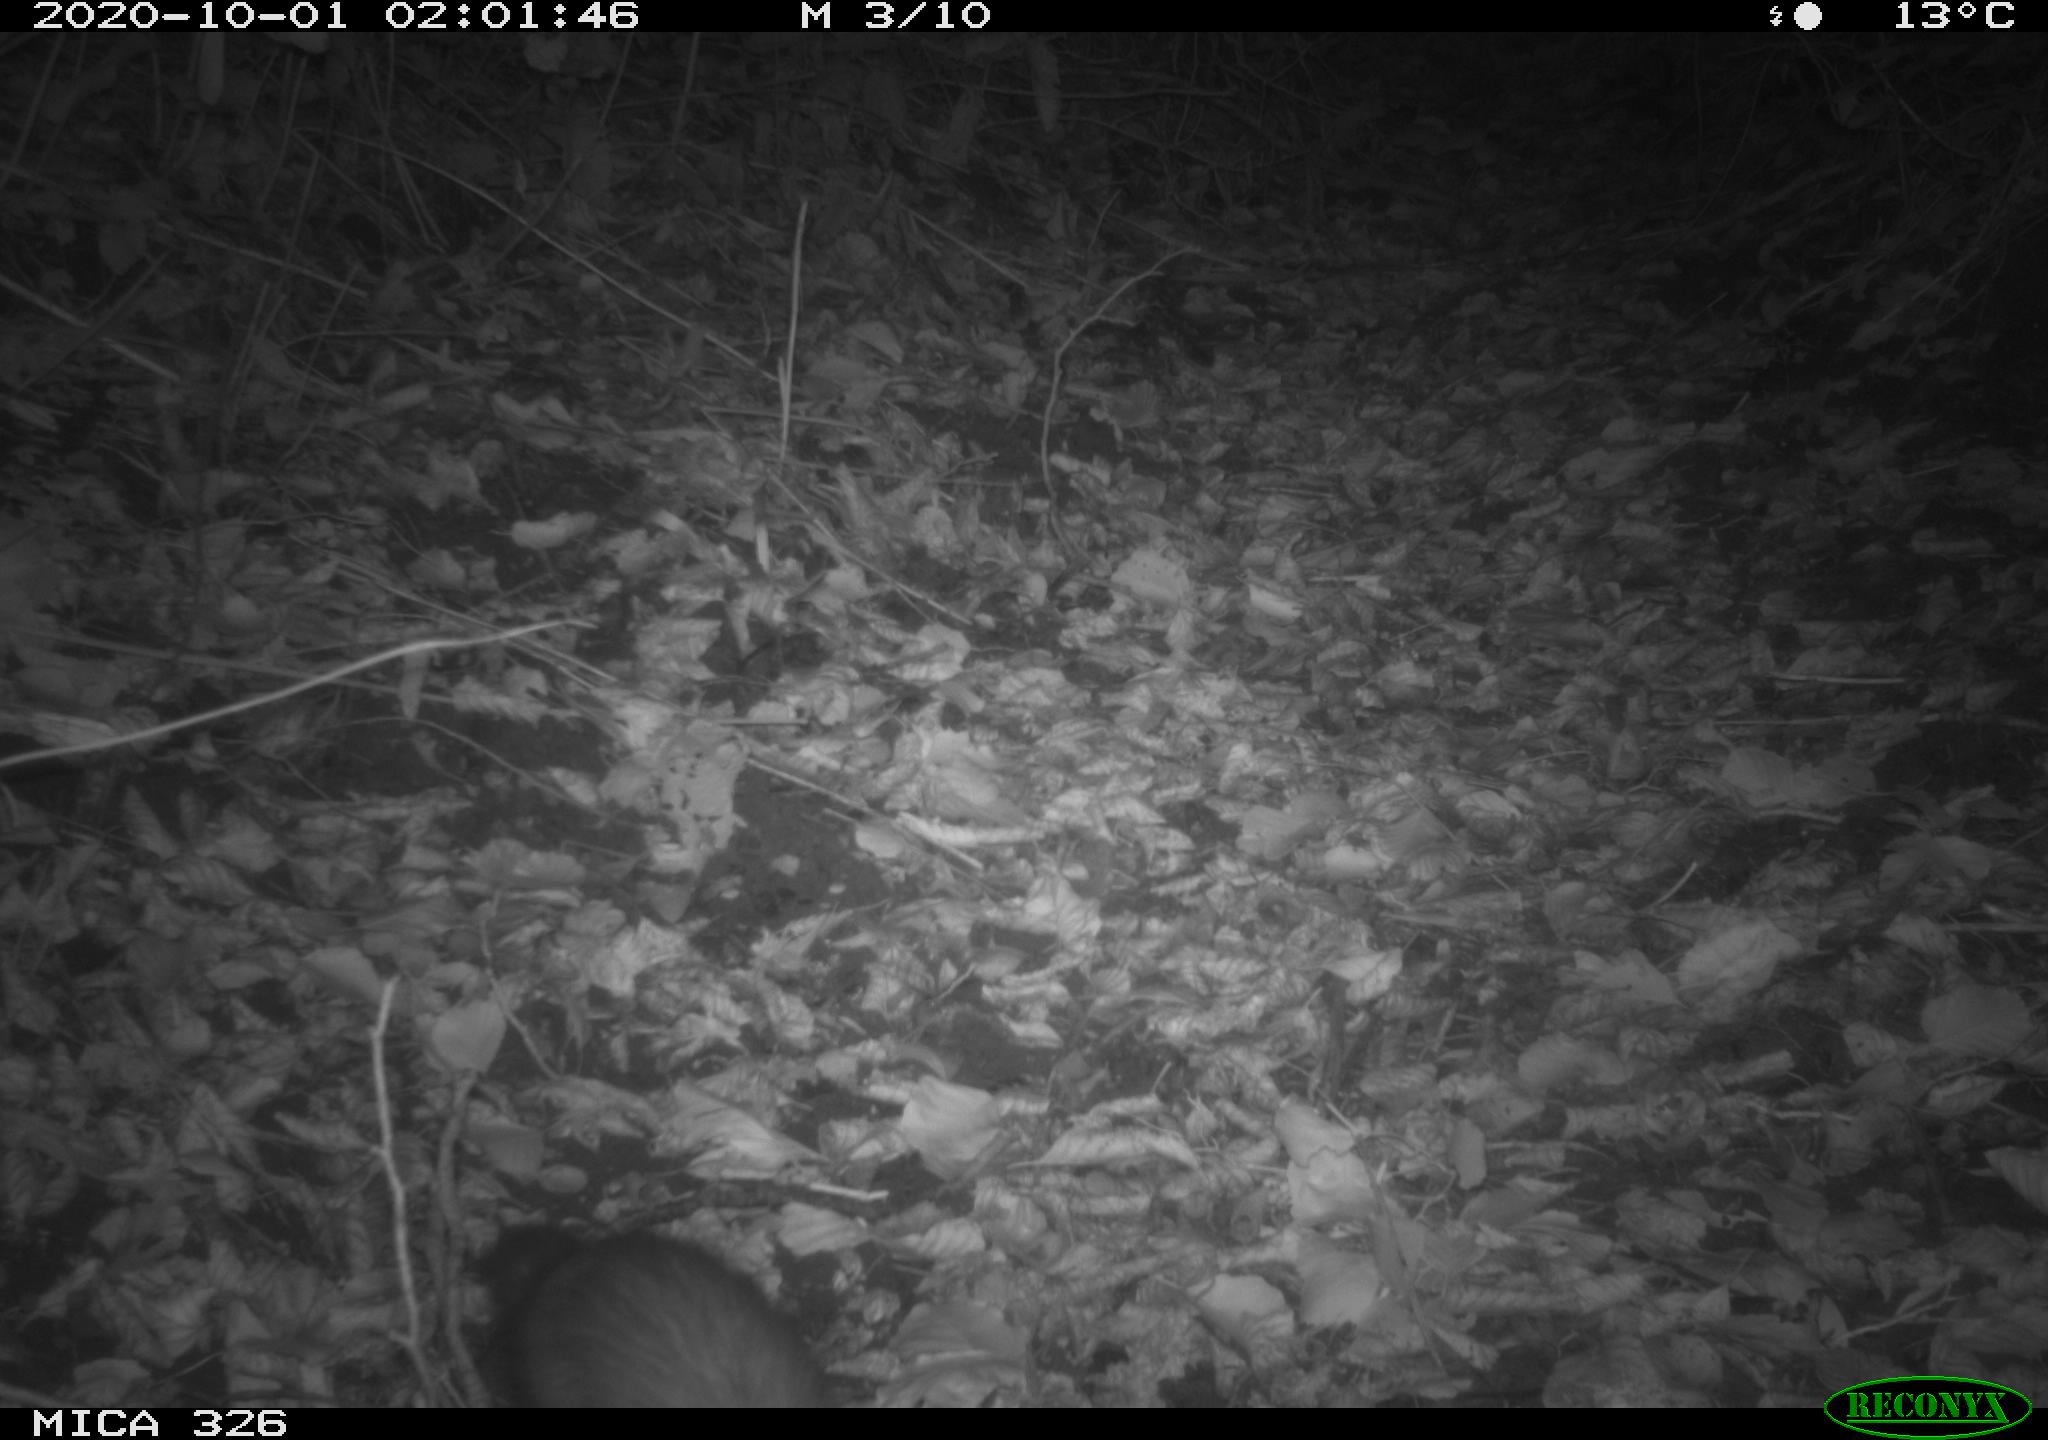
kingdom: Animalia
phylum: Chordata
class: Mammalia
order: Carnivora
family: Mustelidae
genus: Martes
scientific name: Martes foina
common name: Beech marten
